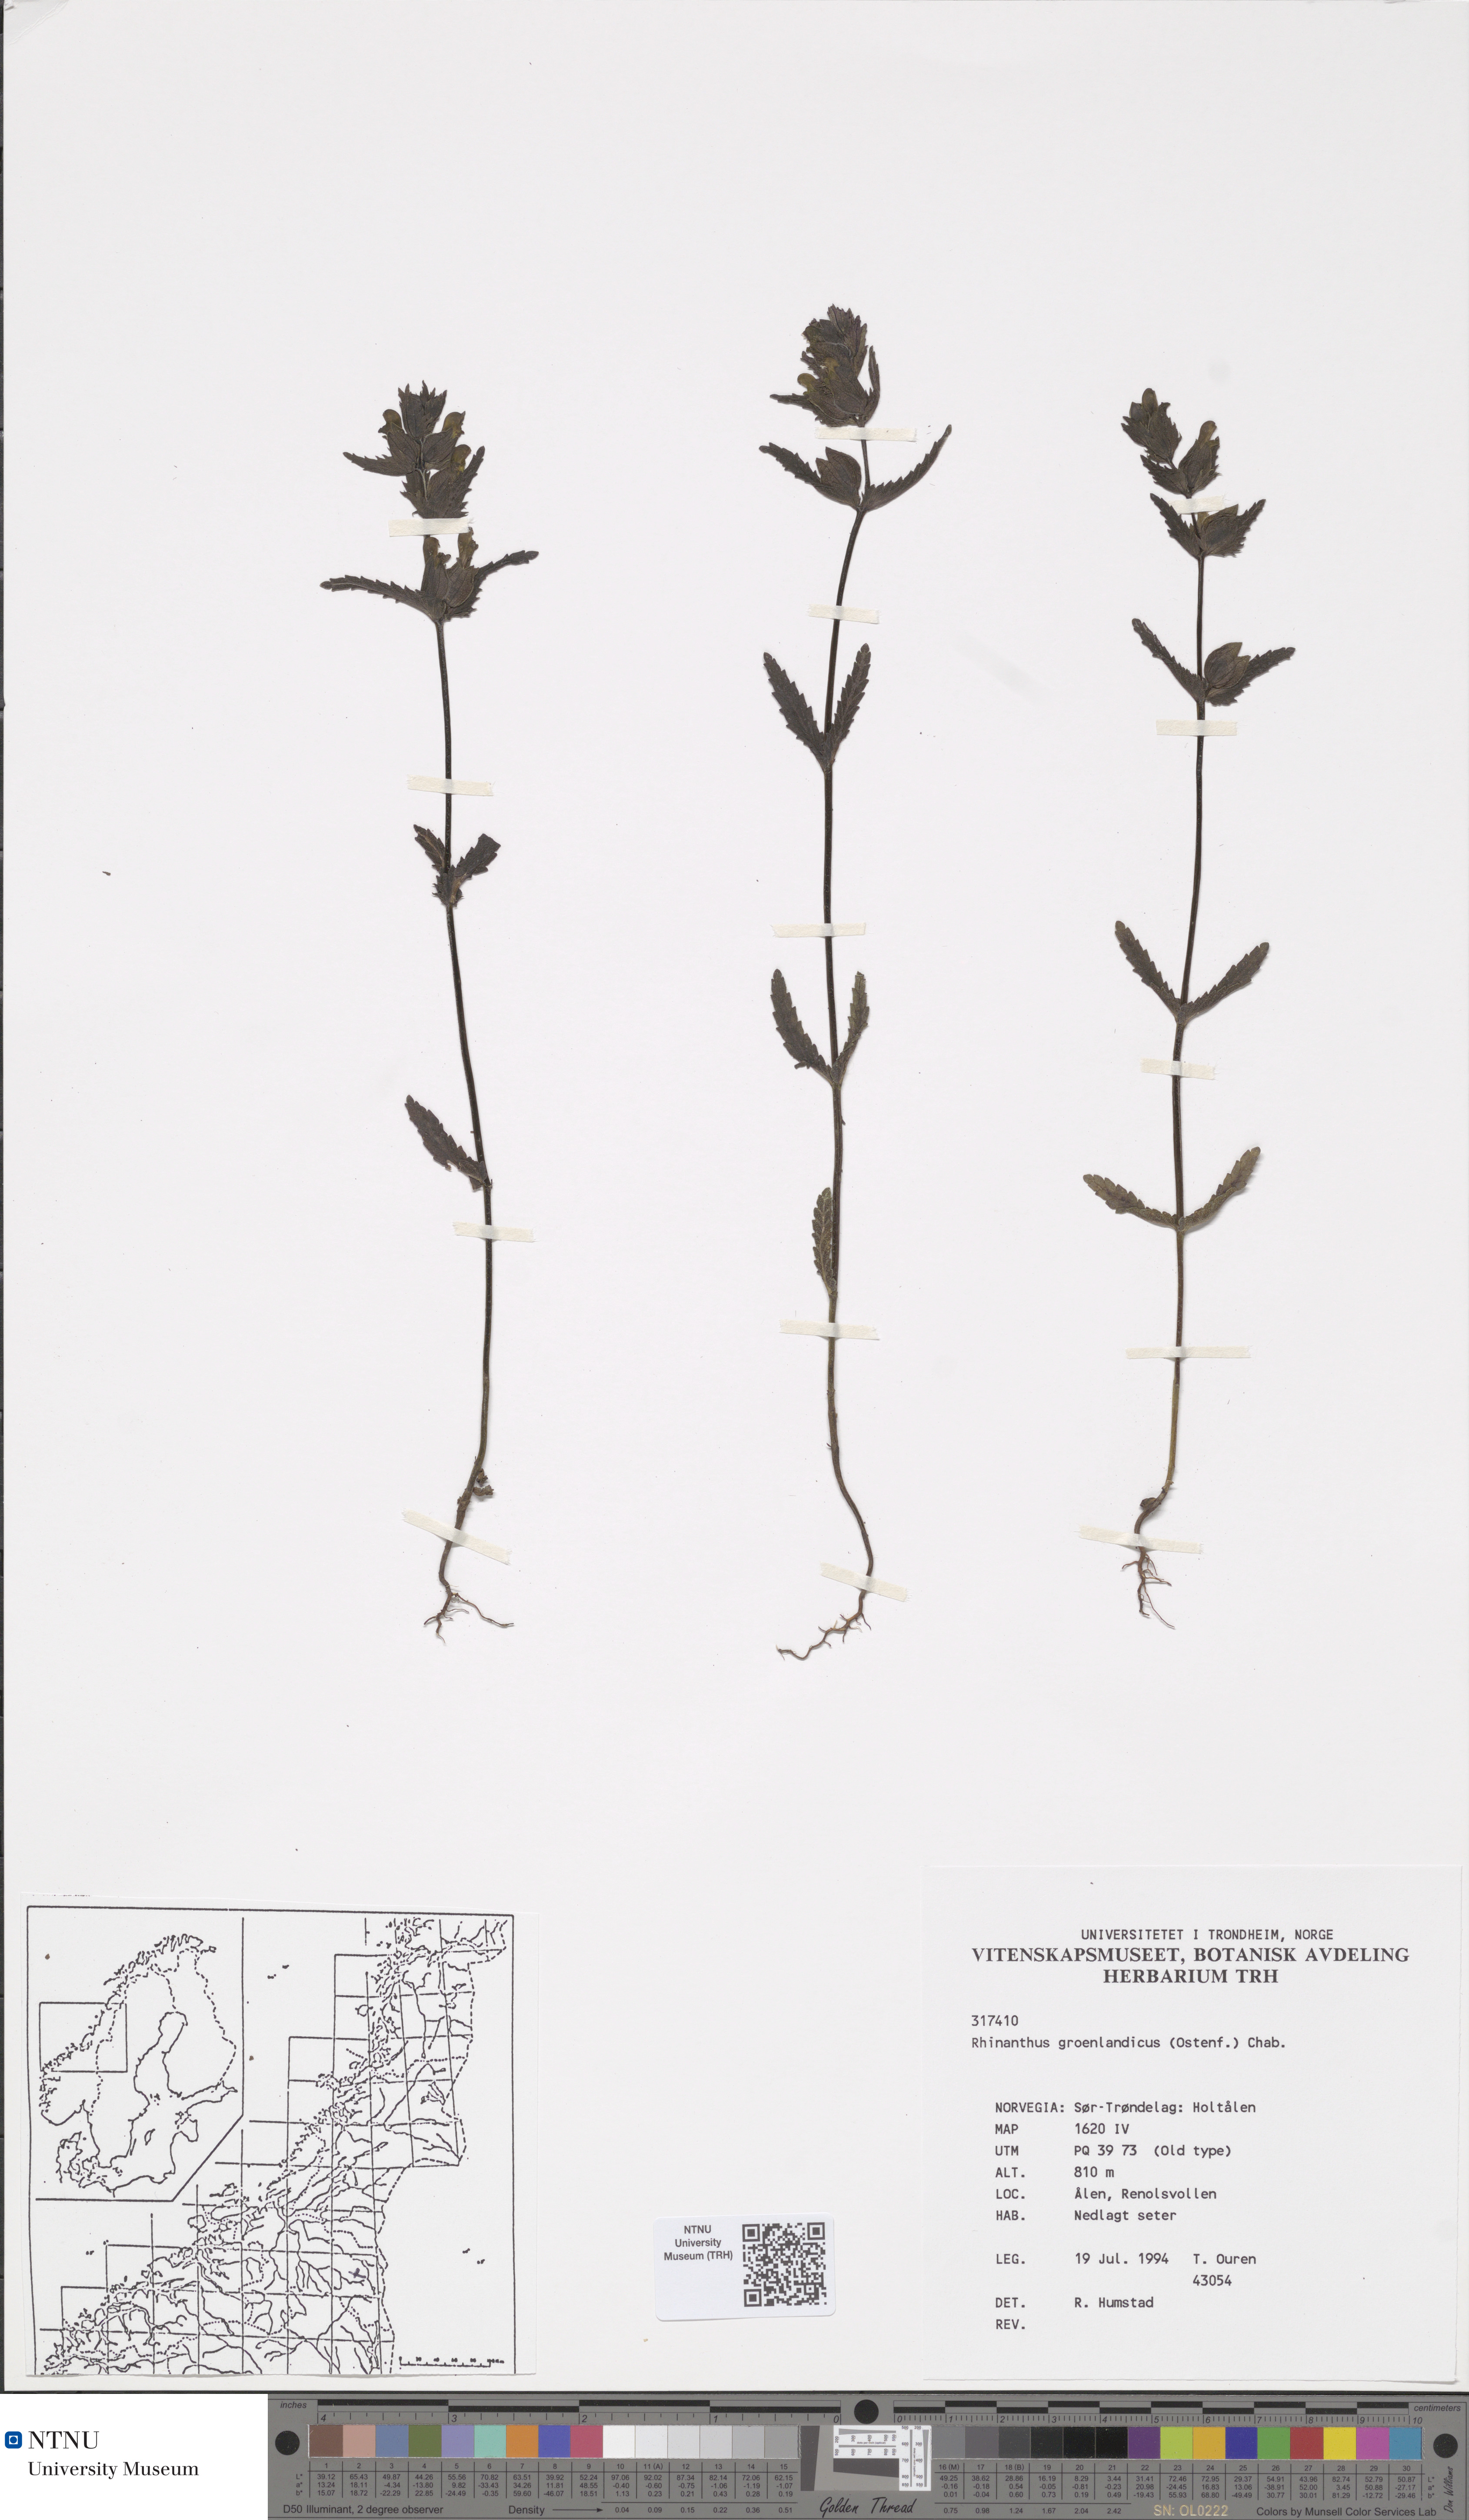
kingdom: Plantae
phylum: Tracheophyta
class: Magnoliopsida
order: Lamiales
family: Orobanchaceae
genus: Rhinanthus
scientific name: Rhinanthus groenlandicus
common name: Little yellow rattle
